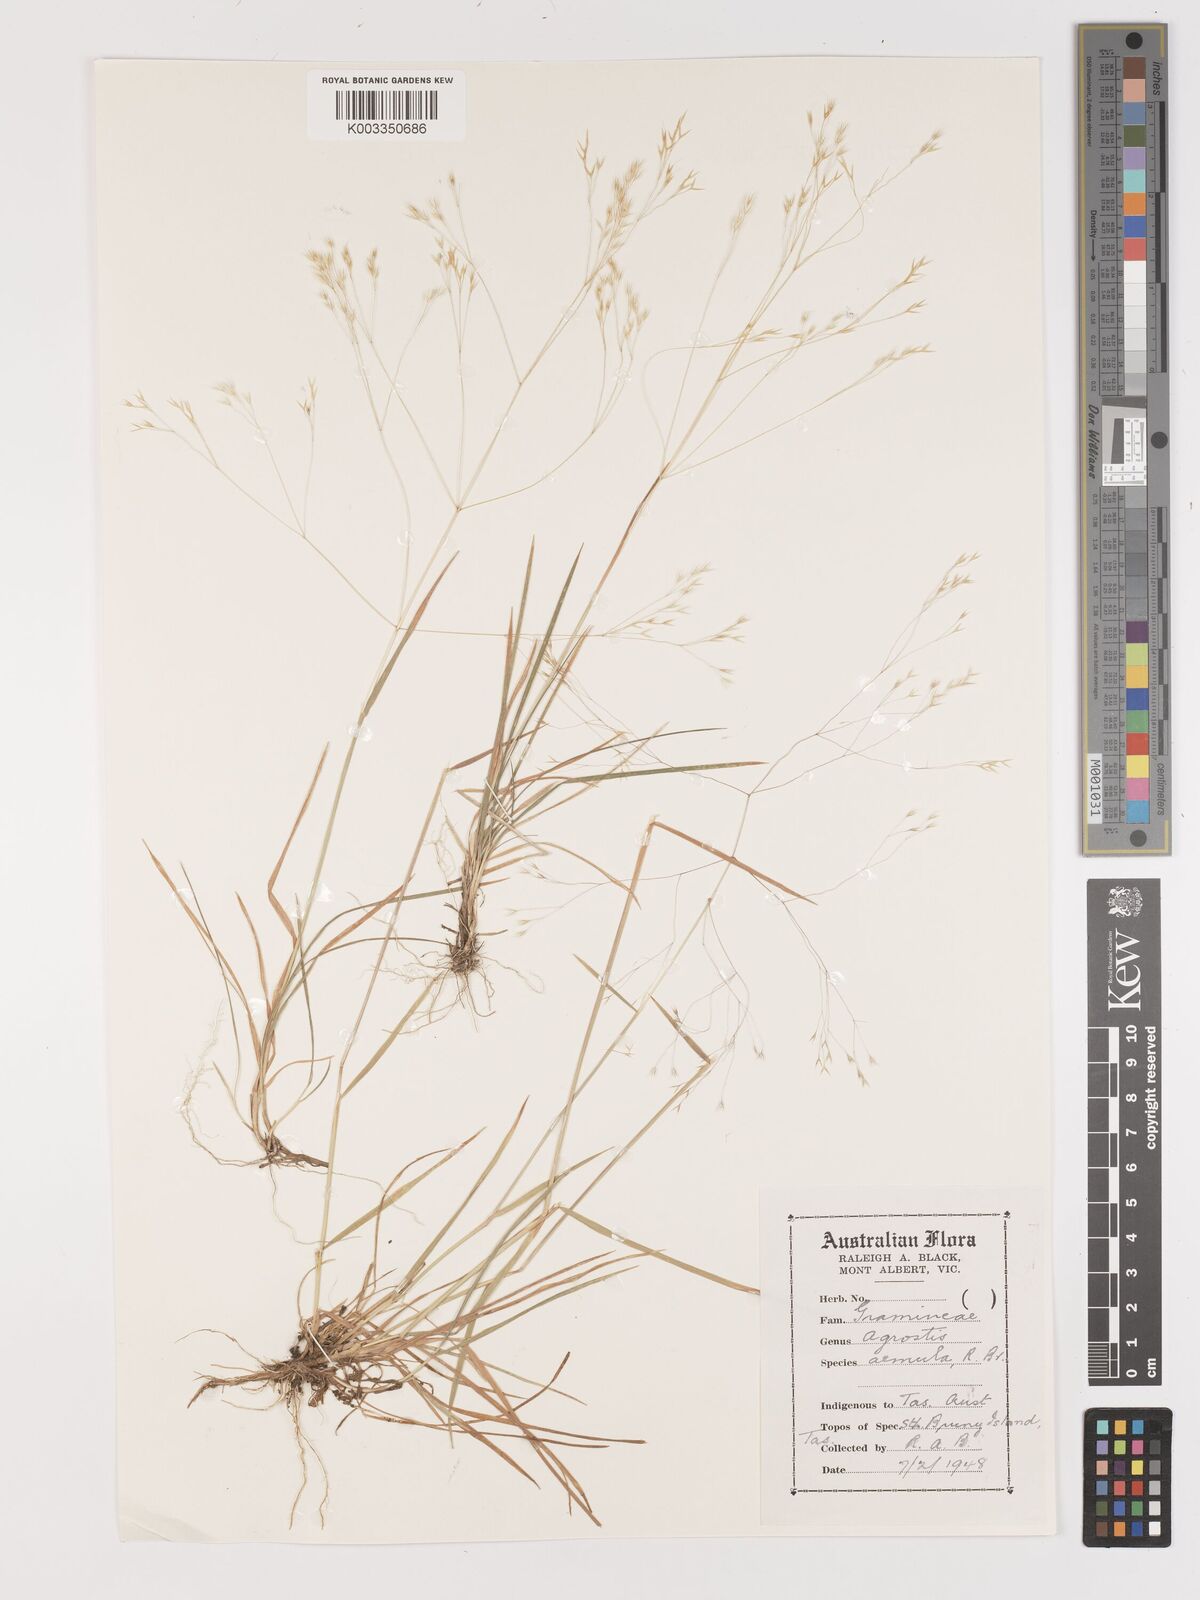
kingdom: Plantae
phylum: Tracheophyta
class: Liliopsida
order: Poales
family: Poaceae
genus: Lachnagrostis
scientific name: Lachnagrostis aemula
